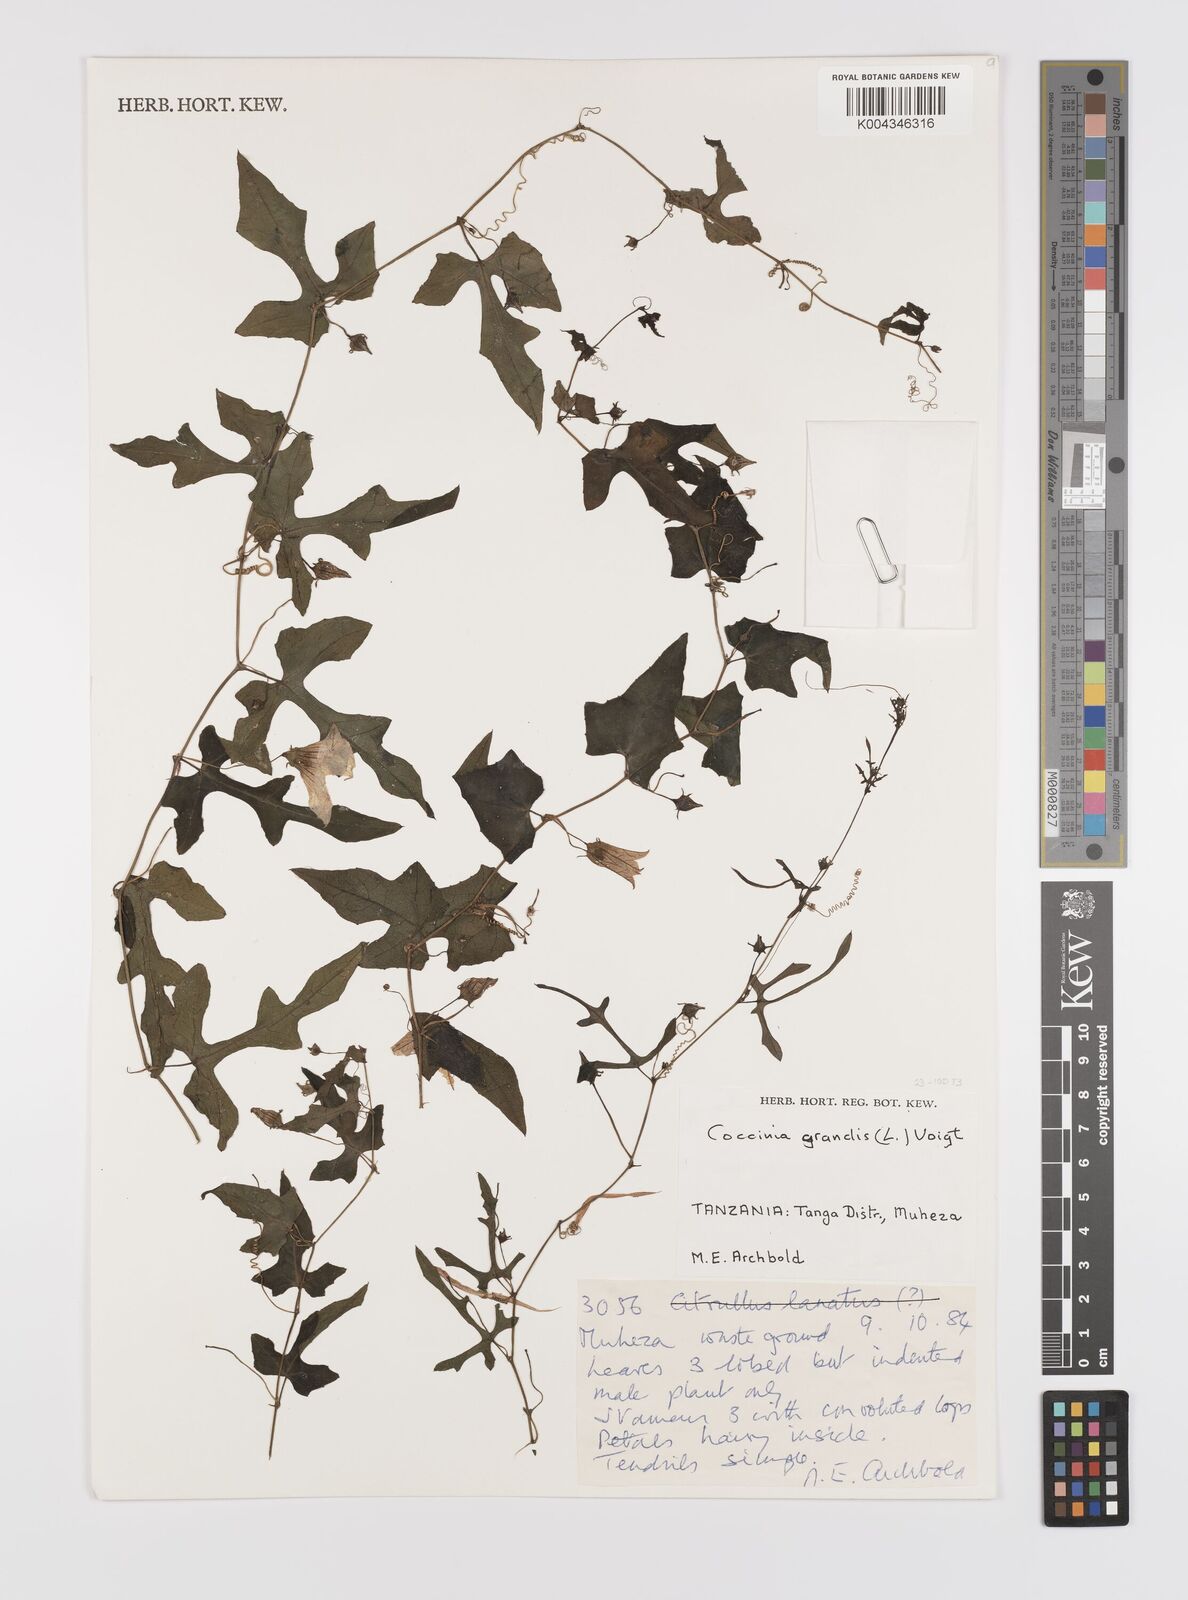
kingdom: Plantae
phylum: Tracheophyta
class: Magnoliopsida
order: Cucurbitales
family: Cucurbitaceae
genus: Coccinia
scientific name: Coccinia grandis
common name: Ivy gourd
